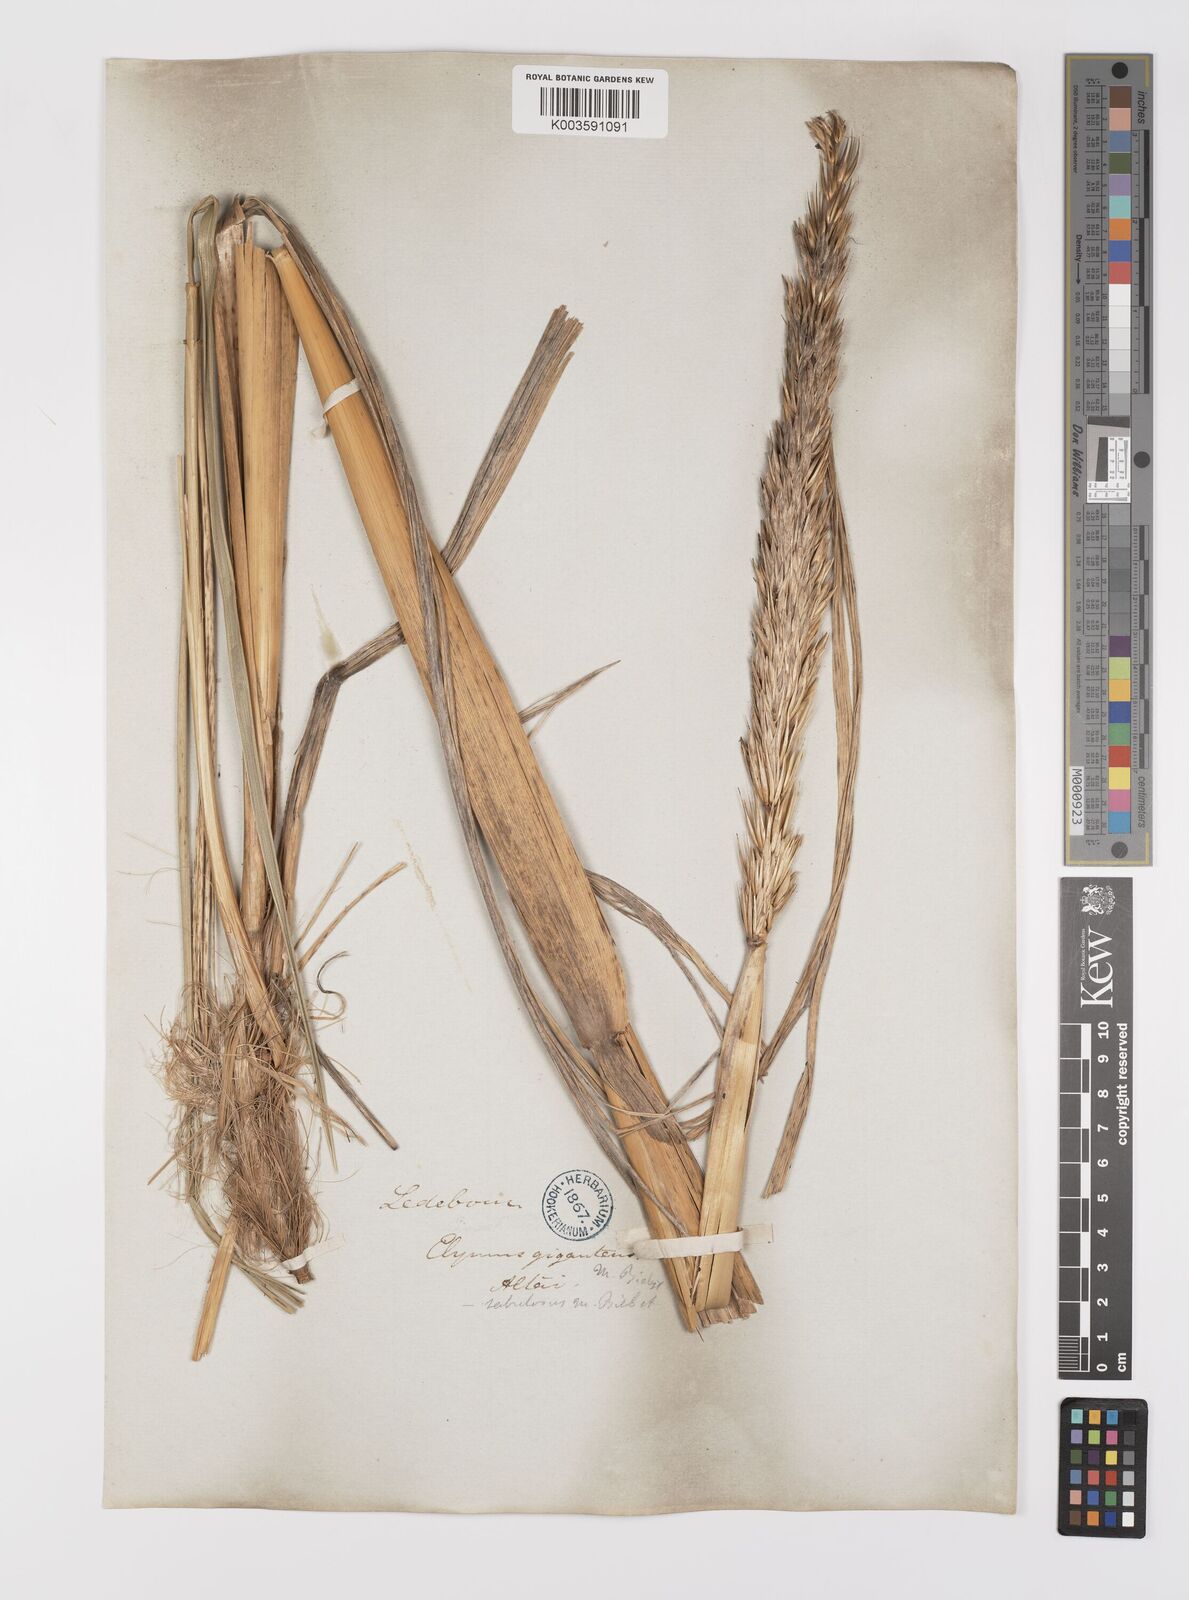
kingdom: Plantae
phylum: Tracheophyta
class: Liliopsida
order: Poales
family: Poaceae
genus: Leymus
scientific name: Leymus racemosus
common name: Mammoth wildrye
